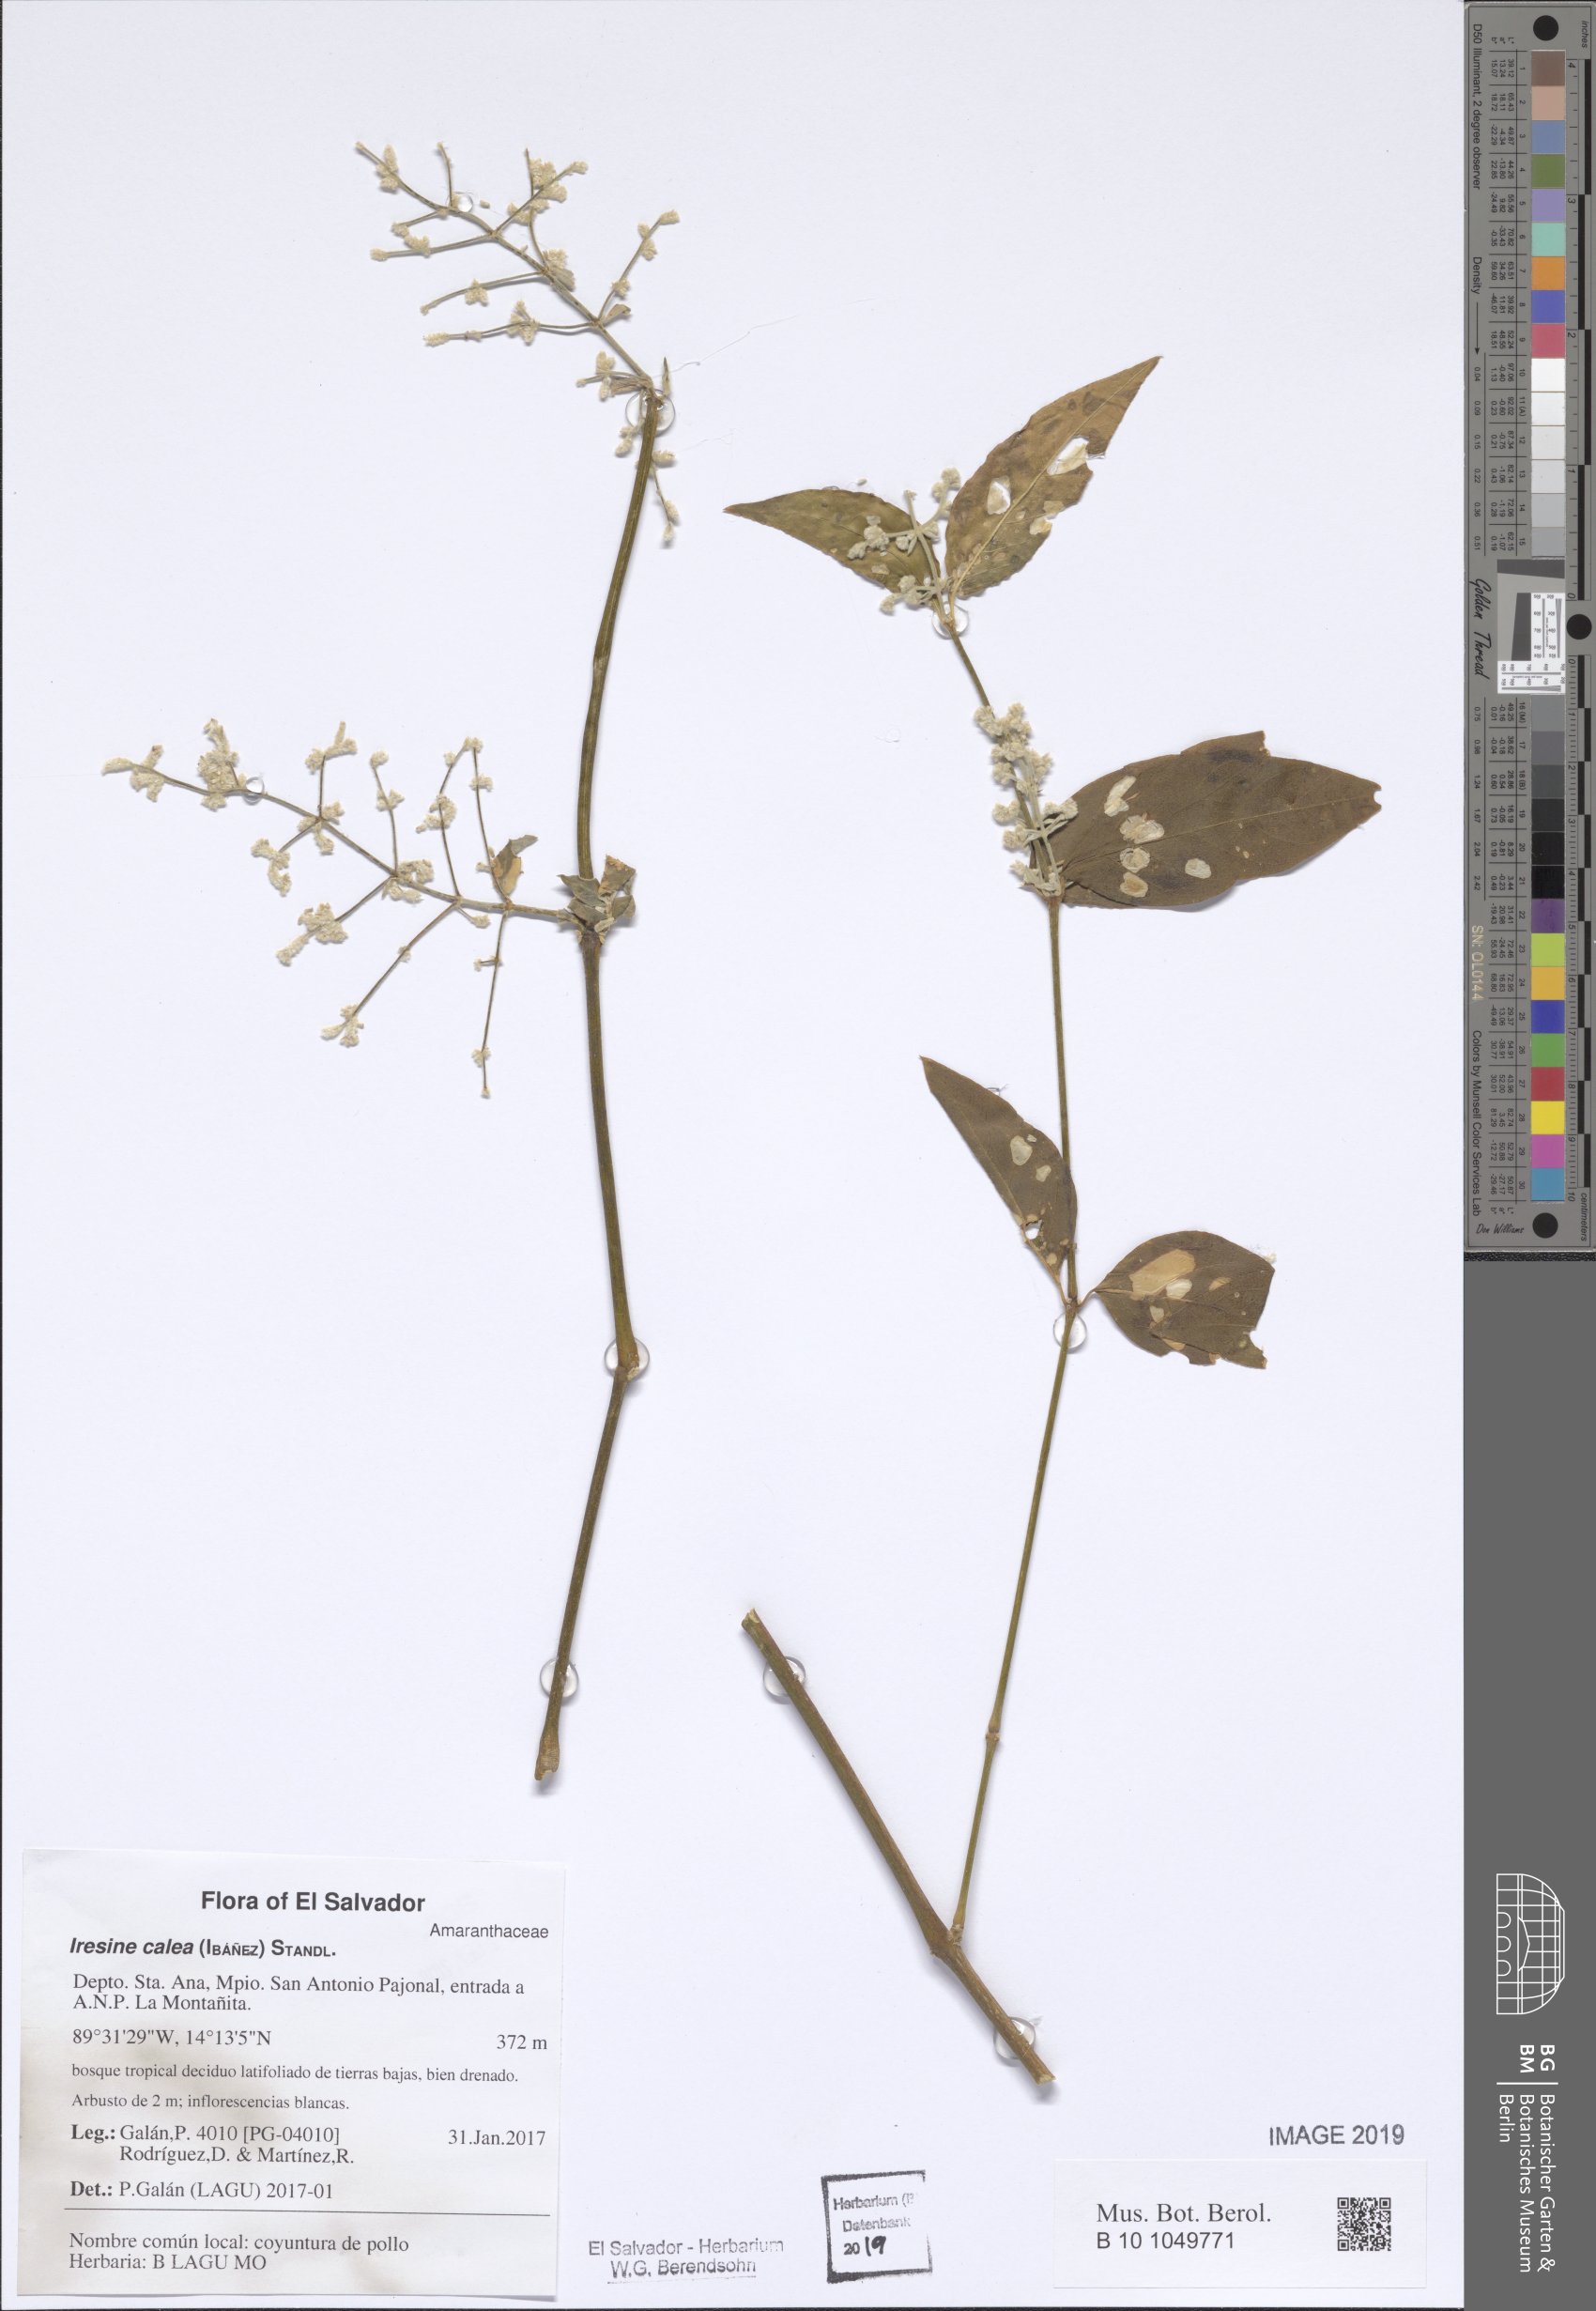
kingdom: Plantae
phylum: Tracheophyta
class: Magnoliopsida
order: Caryophyllales
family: Amaranthaceae
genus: Iresine
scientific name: Iresine latifolia
